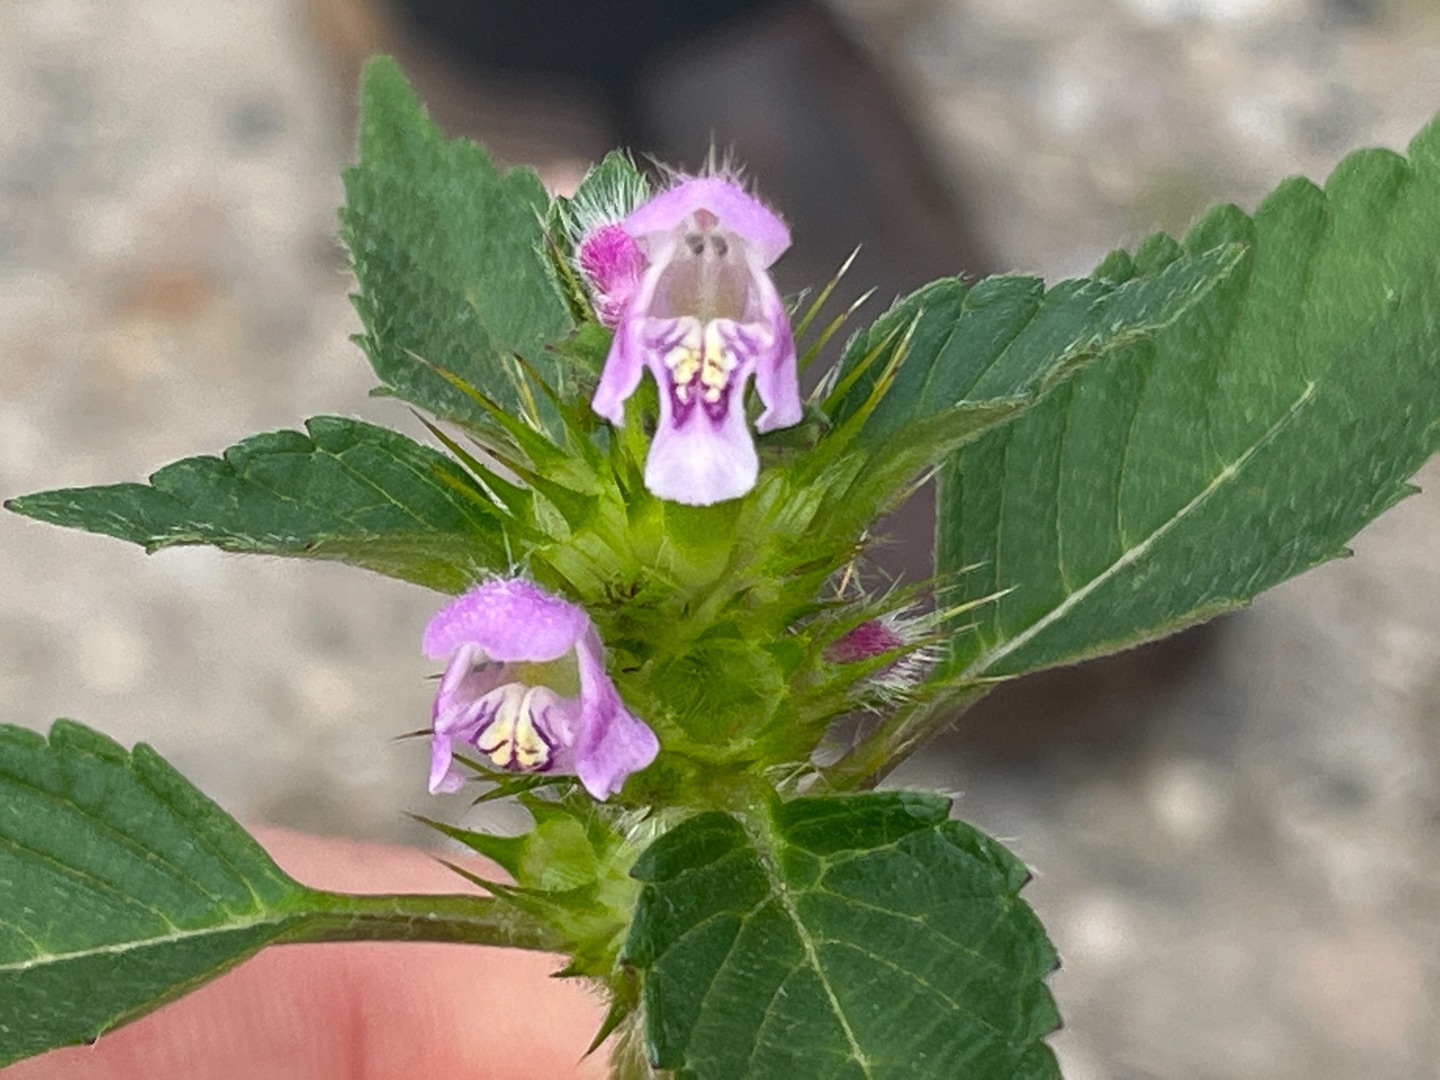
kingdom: Plantae
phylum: Tracheophyta
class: Magnoliopsida
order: Lamiales
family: Lamiaceae
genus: Galeopsis
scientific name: Galeopsis tetrahit
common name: Almindelig hanekro
